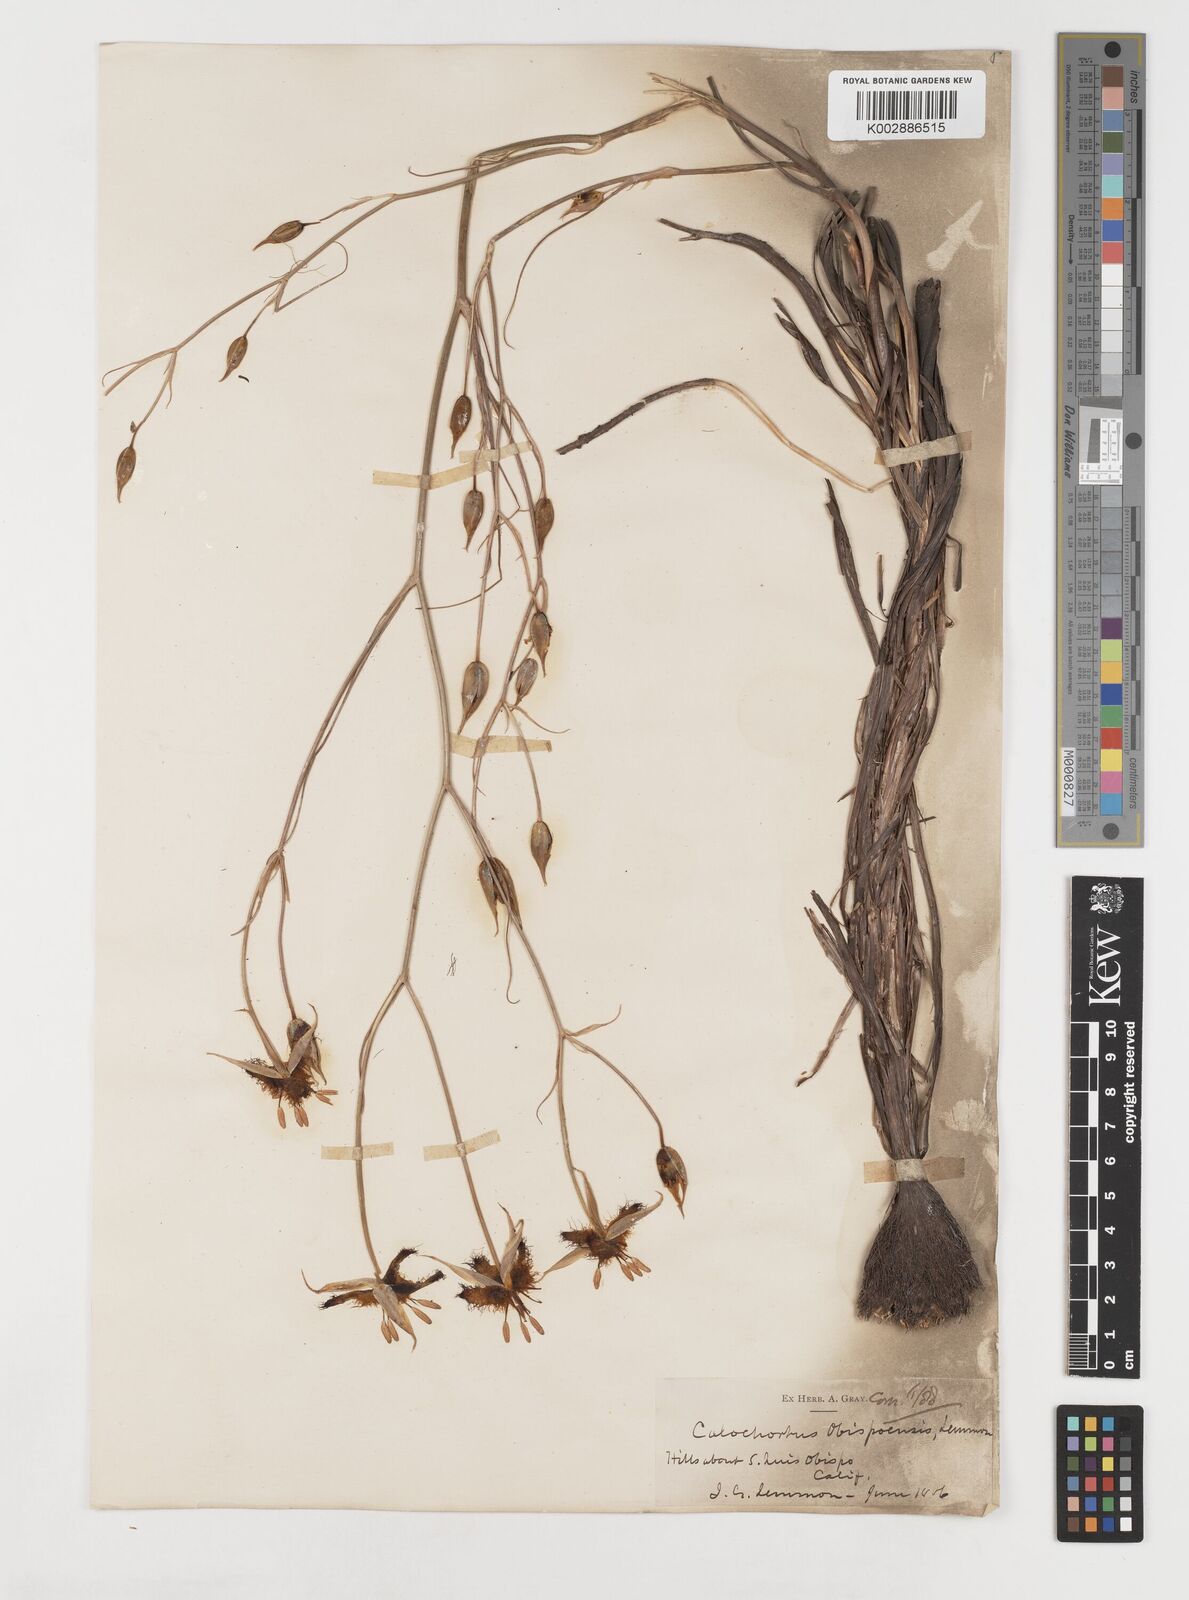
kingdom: Plantae
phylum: Tracheophyta
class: Liliopsida
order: Liliales
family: Liliaceae
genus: Calochortus
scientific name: Calochortus obispoensis
